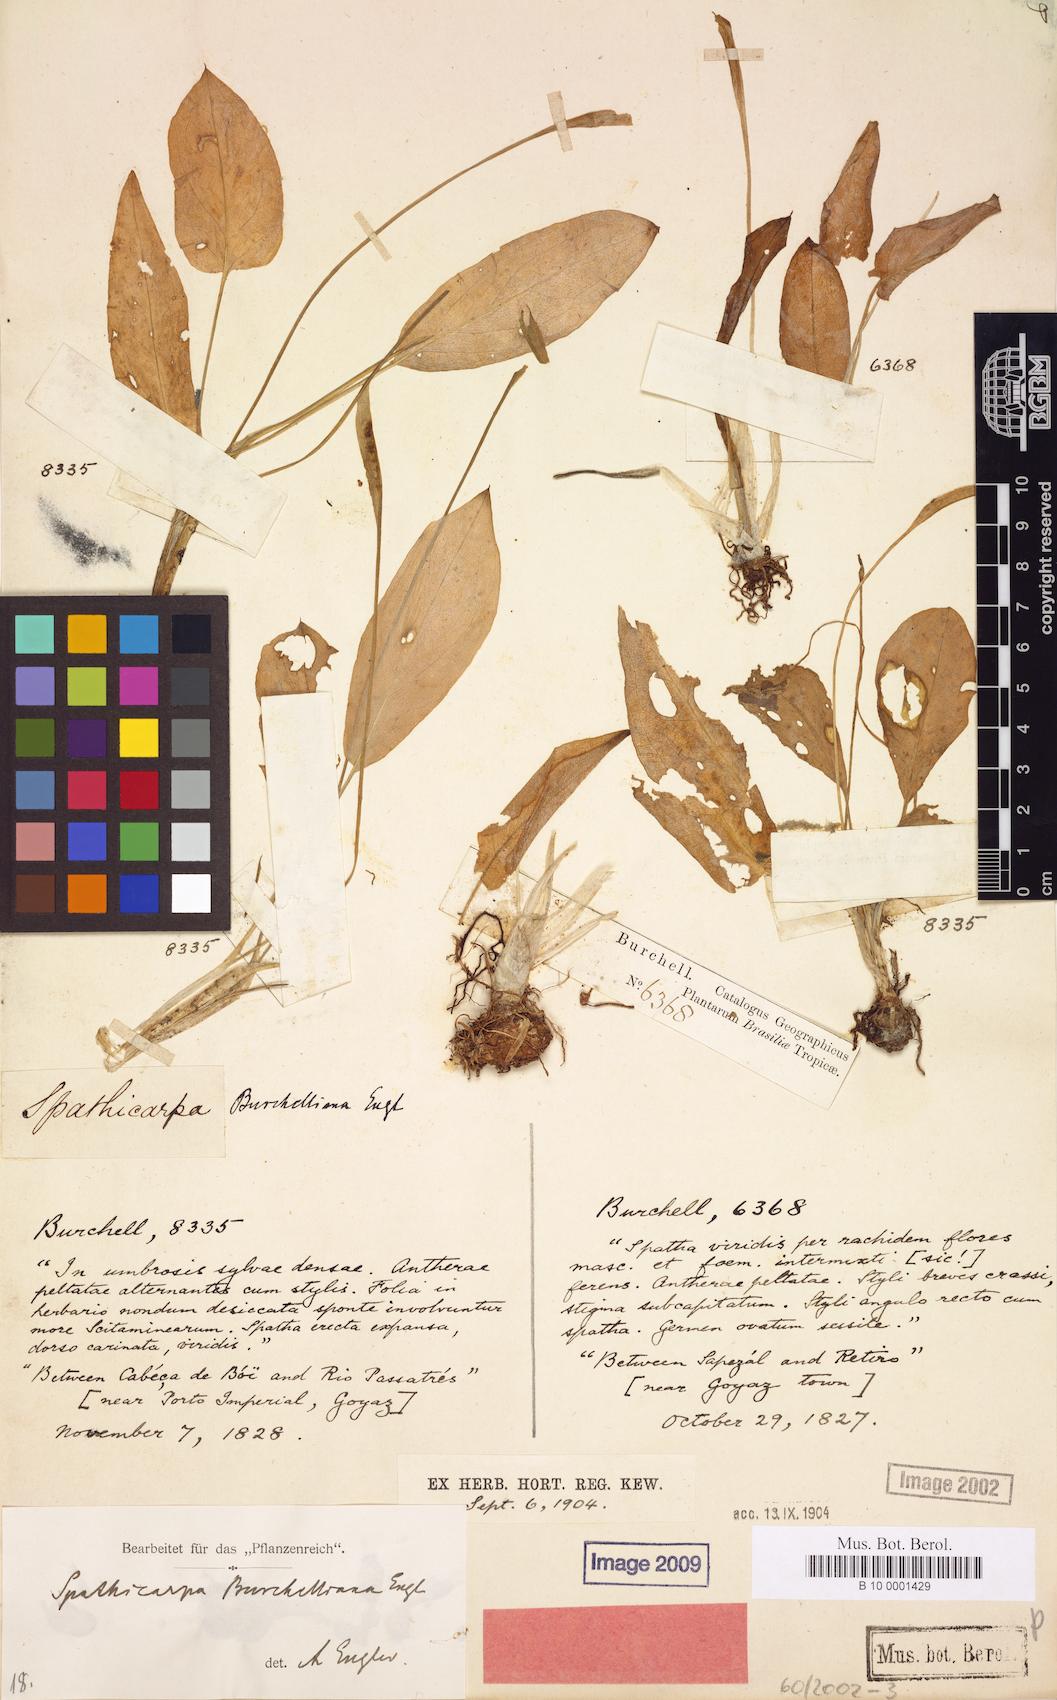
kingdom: Plantae
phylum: Tracheophyta
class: Liliopsida
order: Alismatales
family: Araceae
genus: Spathicarpa
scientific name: Spathicarpa gardneri
